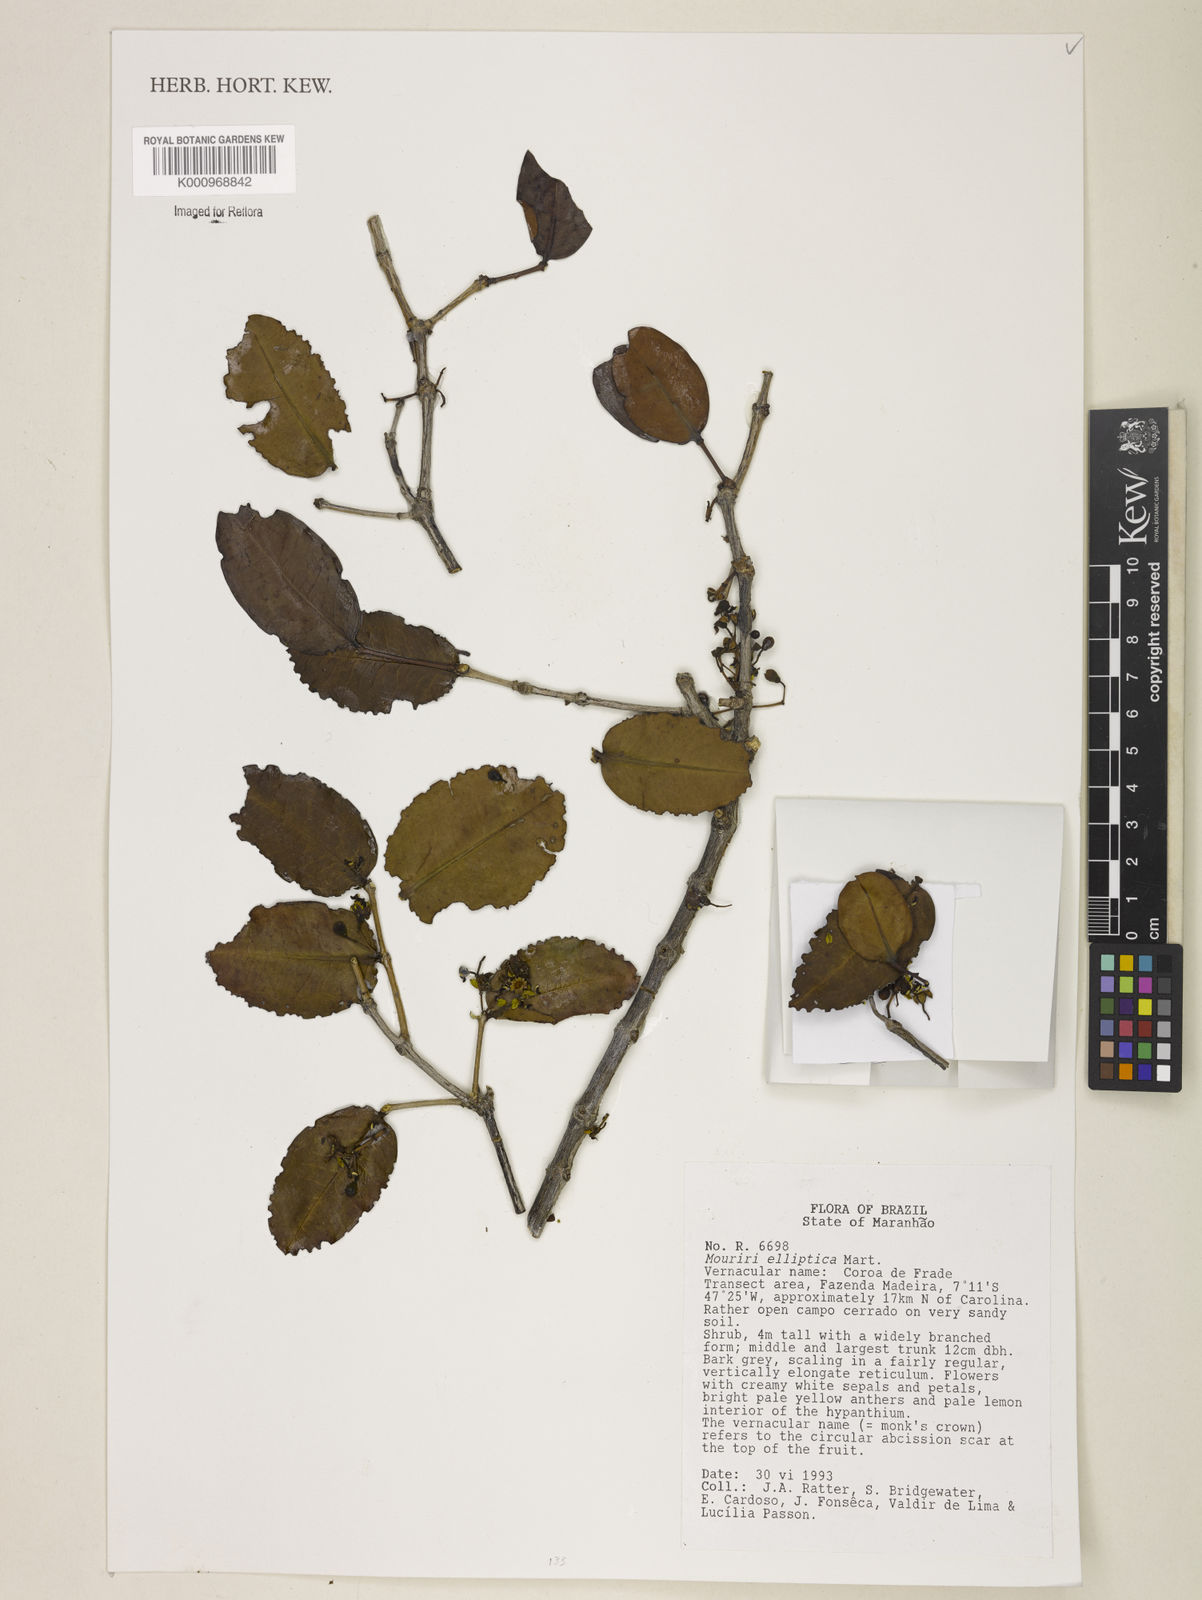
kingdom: Plantae
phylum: Tracheophyta
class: Magnoliopsida
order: Myrtales
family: Melastomataceae
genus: Mouriri
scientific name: Mouriri elliptica
